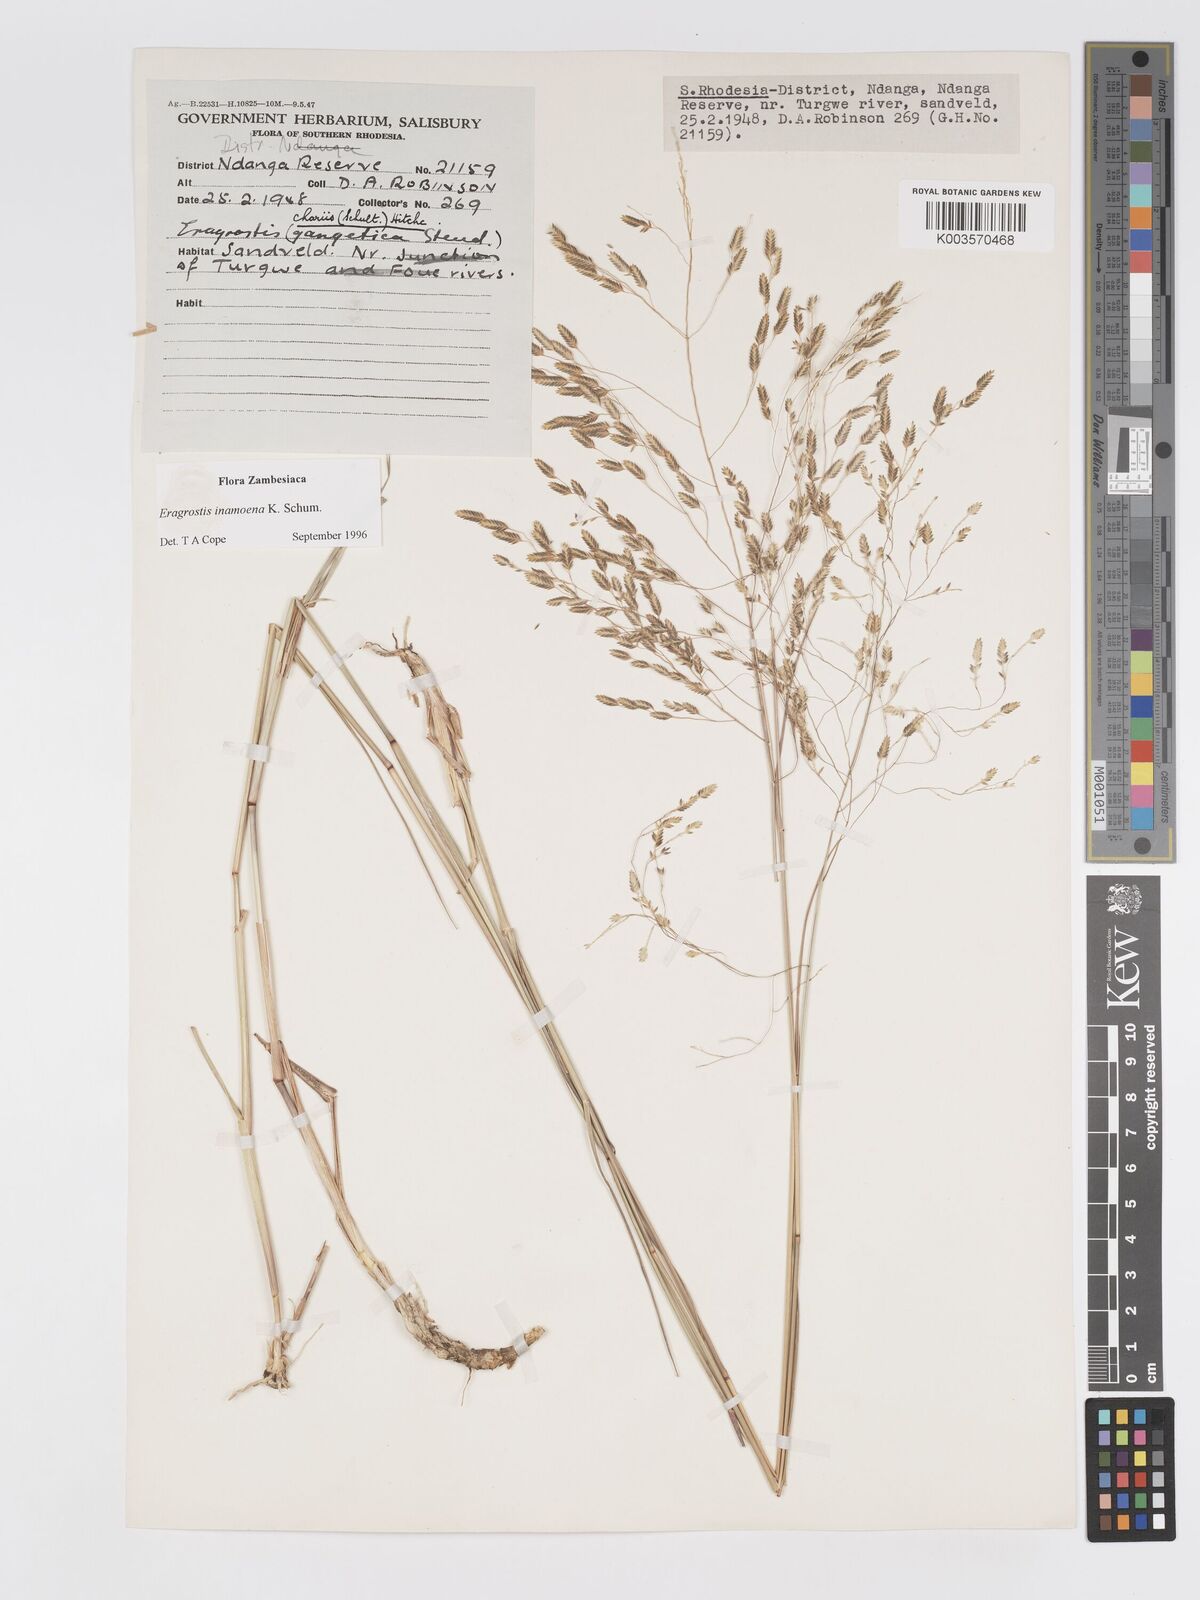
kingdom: Plantae
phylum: Tracheophyta
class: Liliopsida
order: Poales
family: Poaceae
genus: Eragrostis
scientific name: Eragrostis inamoena
